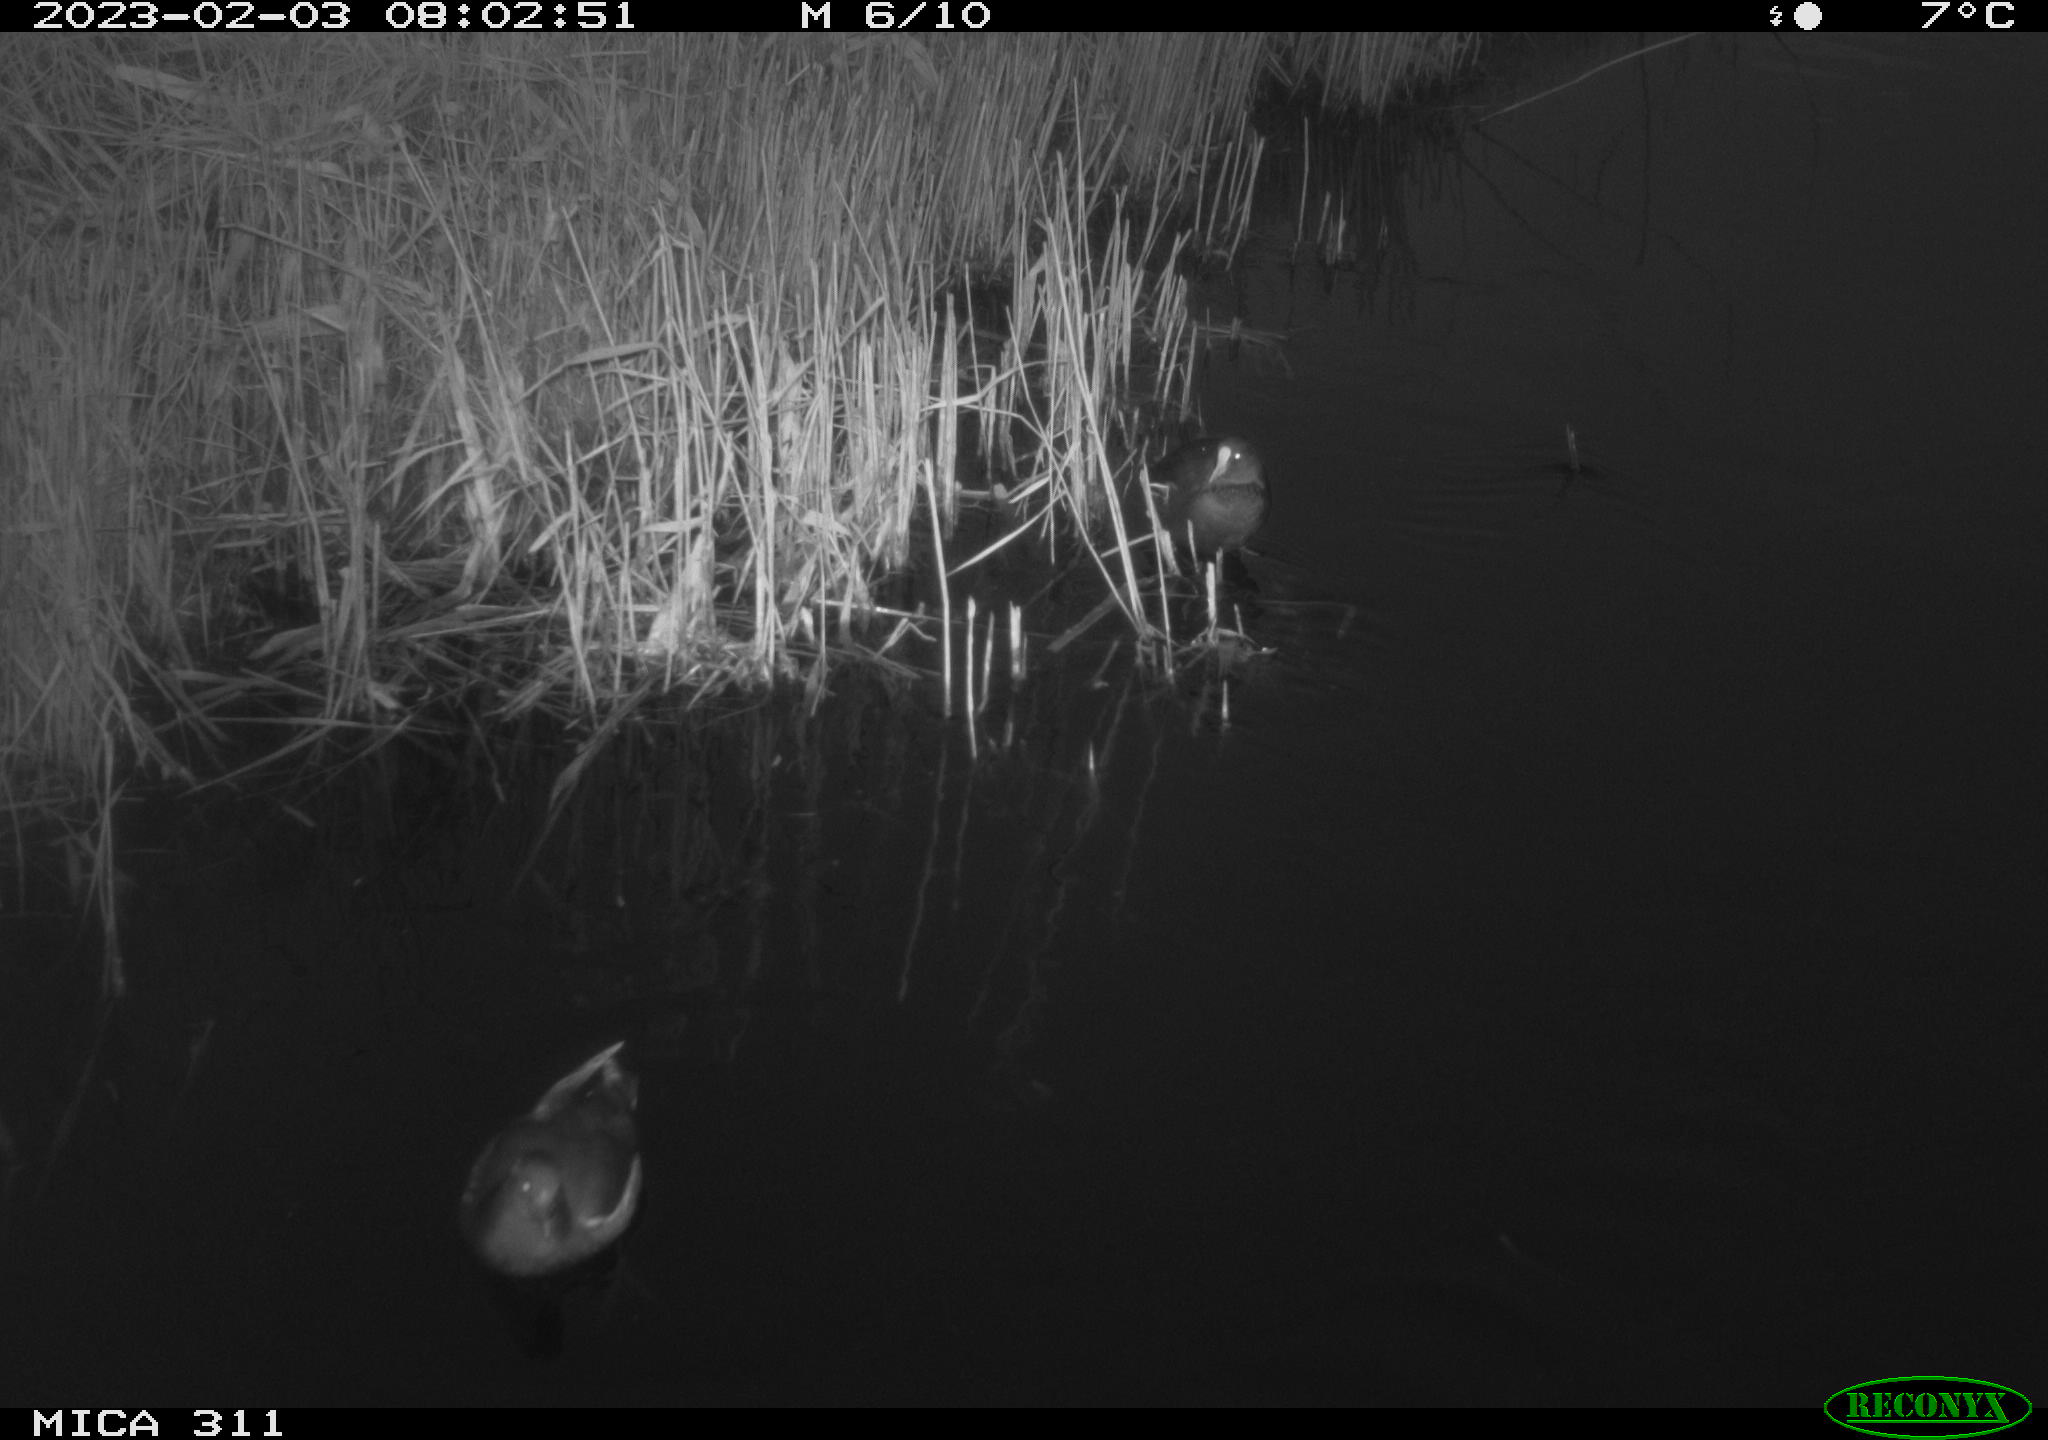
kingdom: Animalia
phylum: Chordata
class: Aves
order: Gruiformes
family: Rallidae
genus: Gallinula
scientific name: Gallinula chloropus
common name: Common moorhen
